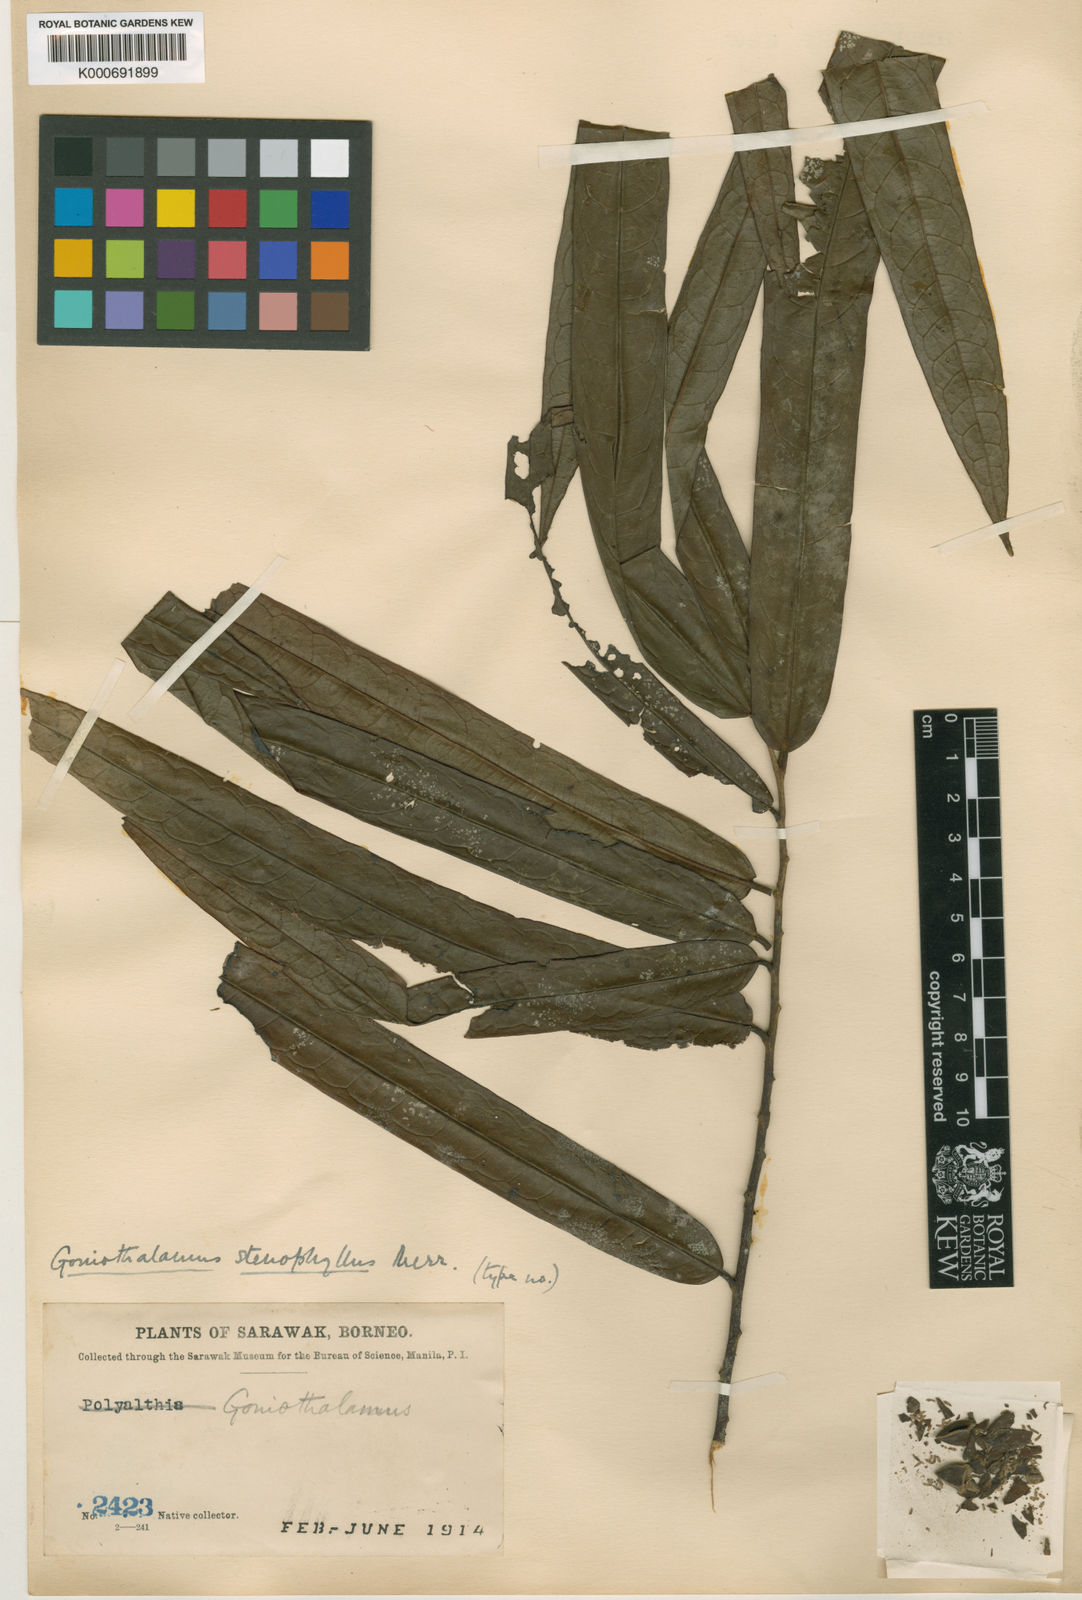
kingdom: Plantae
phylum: Tracheophyta
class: Magnoliopsida
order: Magnoliales
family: Annonaceae
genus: Goniothalamus
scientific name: Goniothalamus stenophyllus
